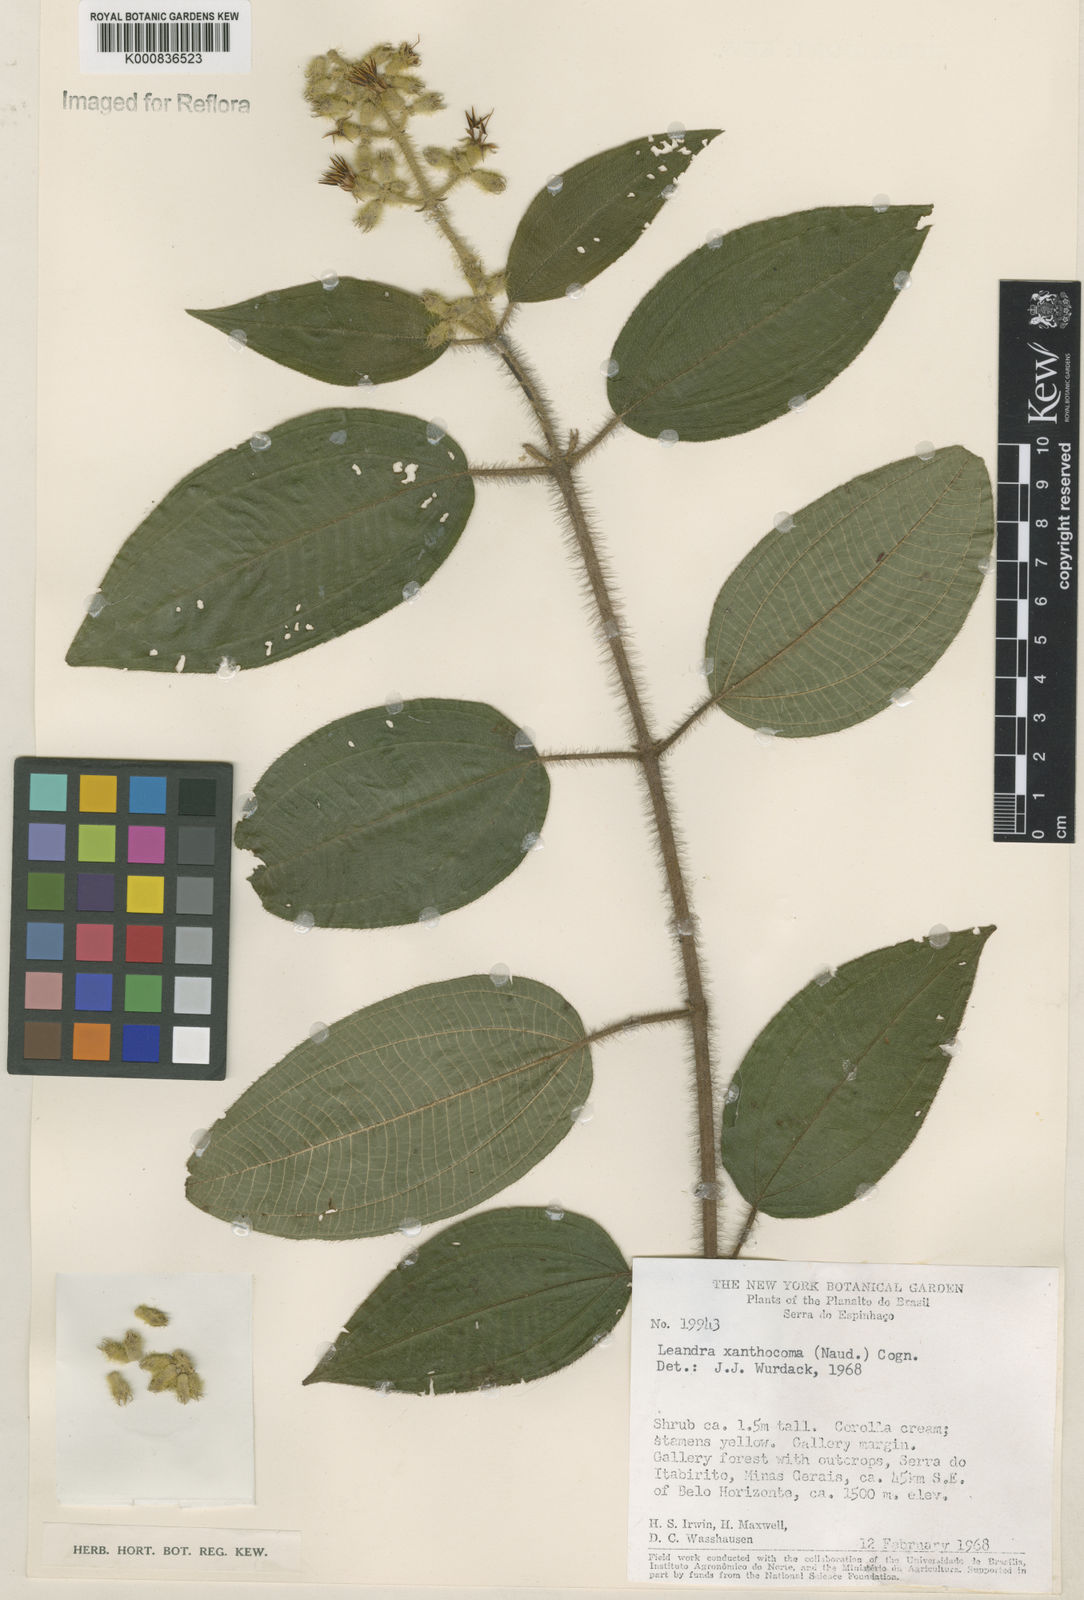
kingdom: Plantae
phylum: Tracheophyta
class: Magnoliopsida
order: Myrtales
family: Melastomataceae
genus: Miconia
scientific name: Miconia xanthocoma
